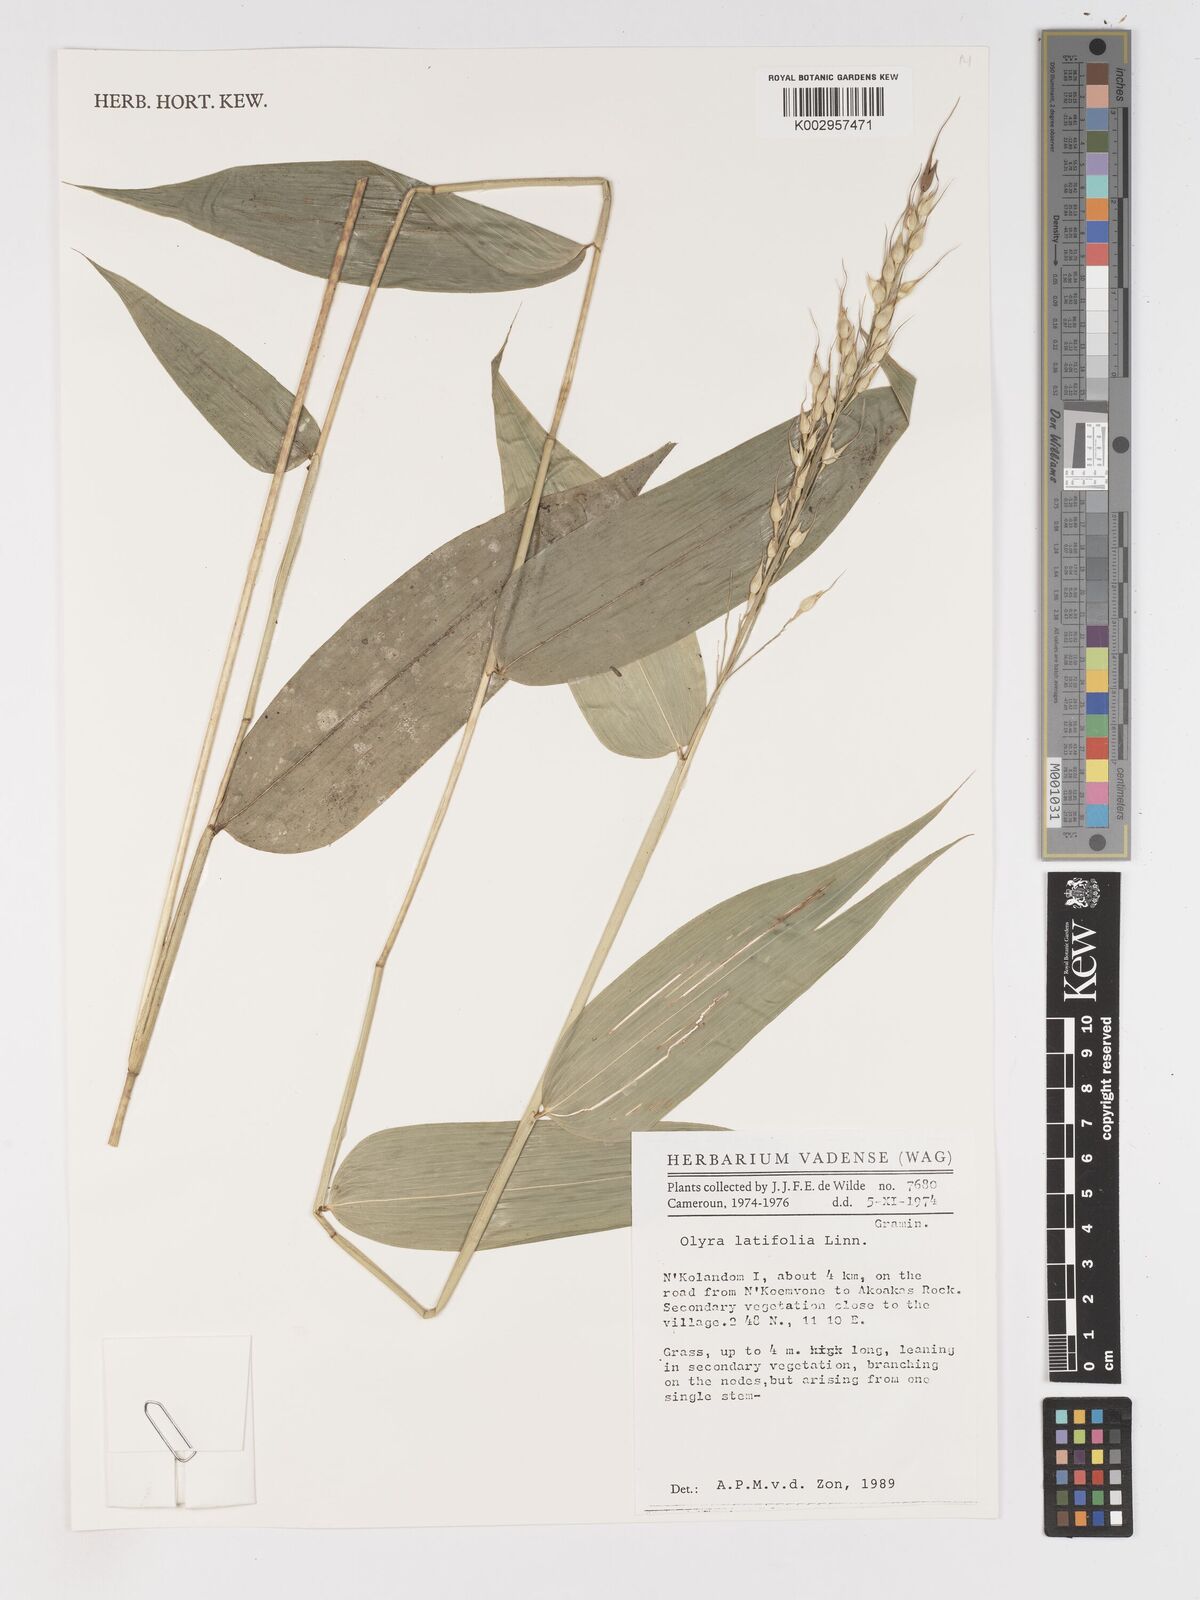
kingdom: Plantae
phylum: Tracheophyta
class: Liliopsida
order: Poales
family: Poaceae
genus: Olyra
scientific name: Olyra latifolia
